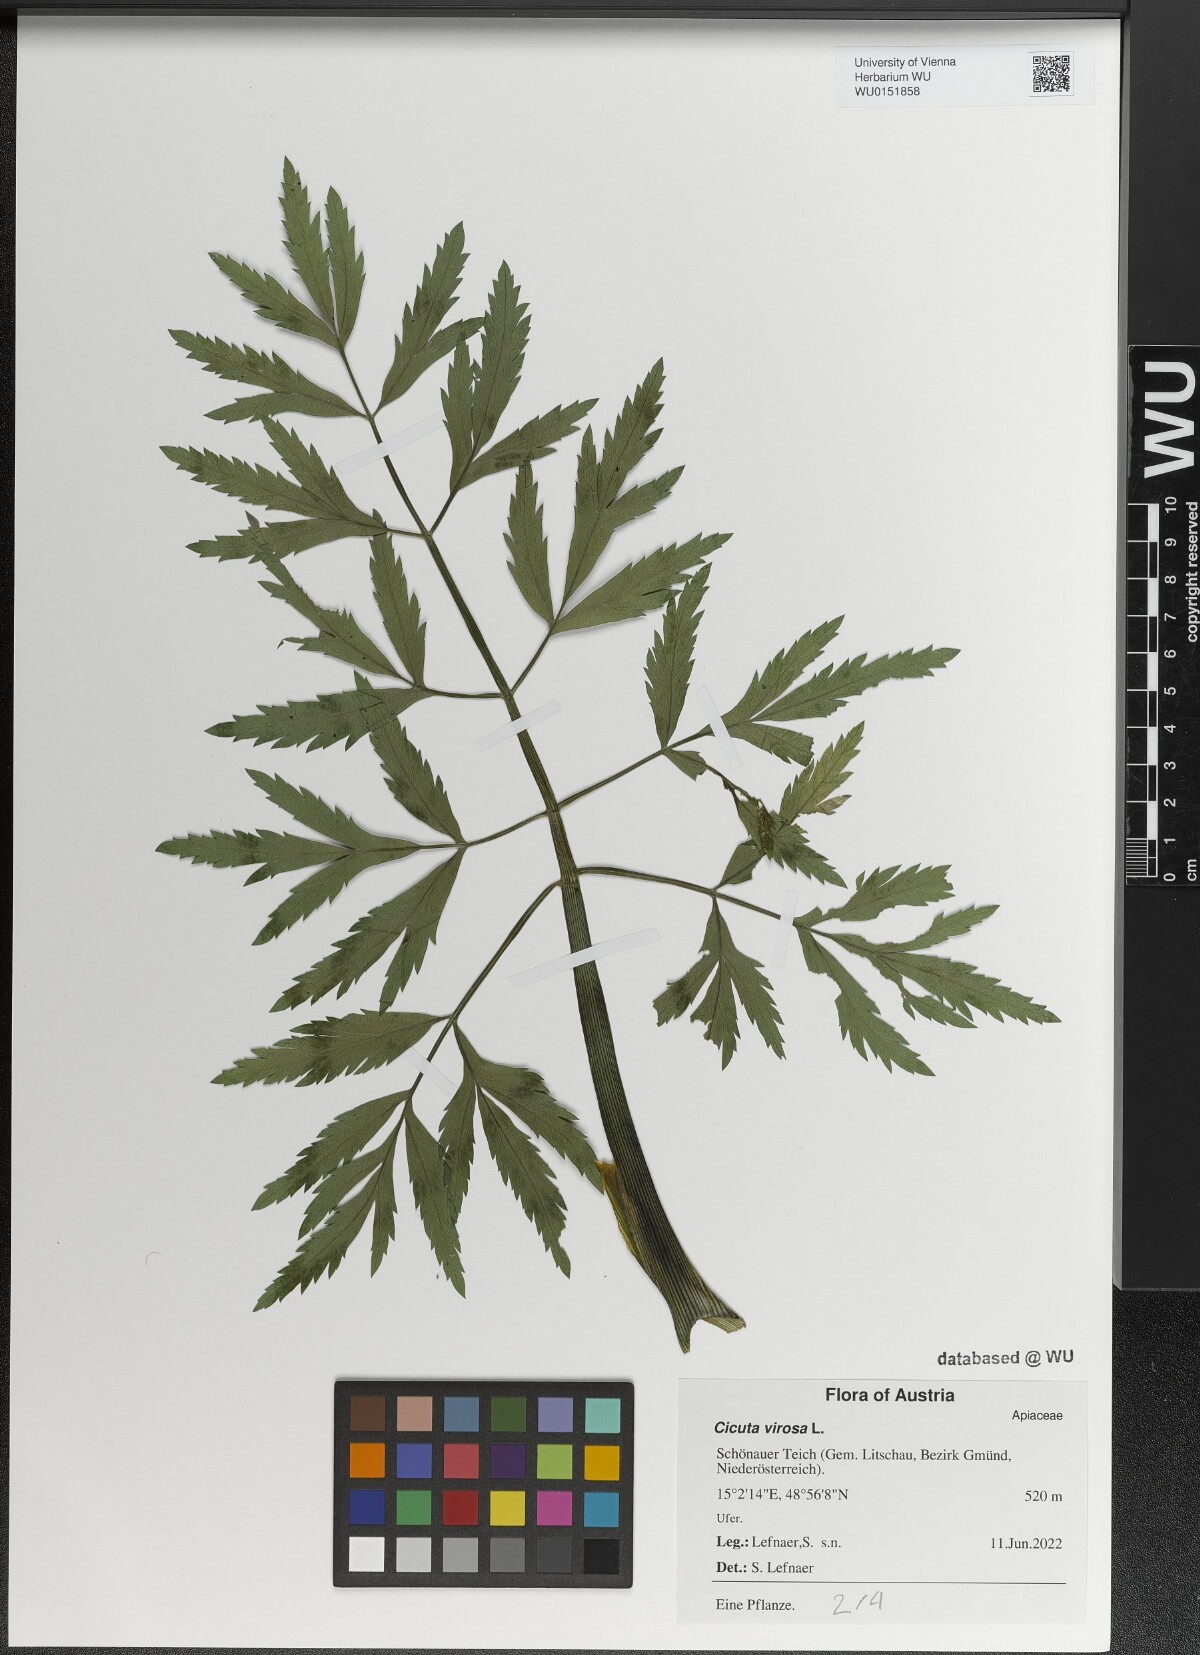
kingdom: Plantae
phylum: Tracheophyta
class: Magnoliopsida
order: Apiales
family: Apiaceae
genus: Cicuta
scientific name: Cicuta virosa
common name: Cowbane
